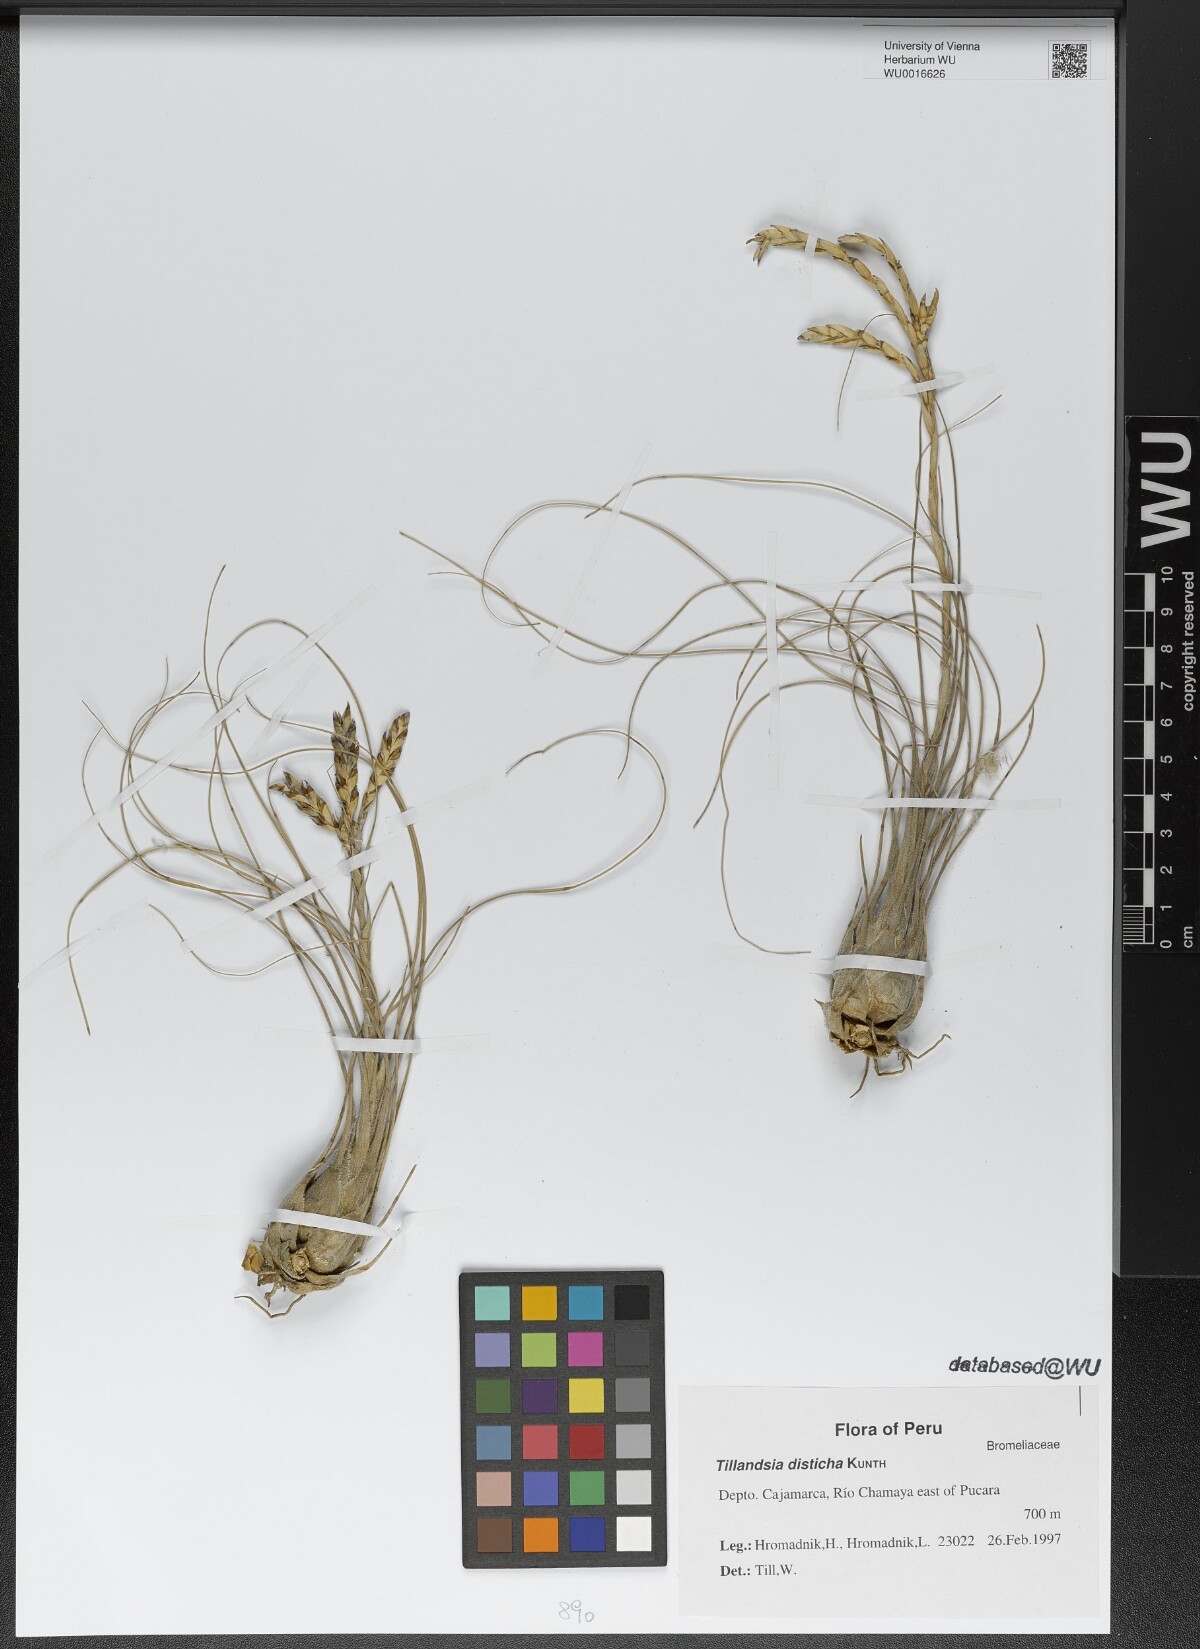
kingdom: Plantae
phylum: Tracheophyta
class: Liliopsida
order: Poales
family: Bromeliaceae
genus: Tillandsia
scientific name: Tillandsia disticha
